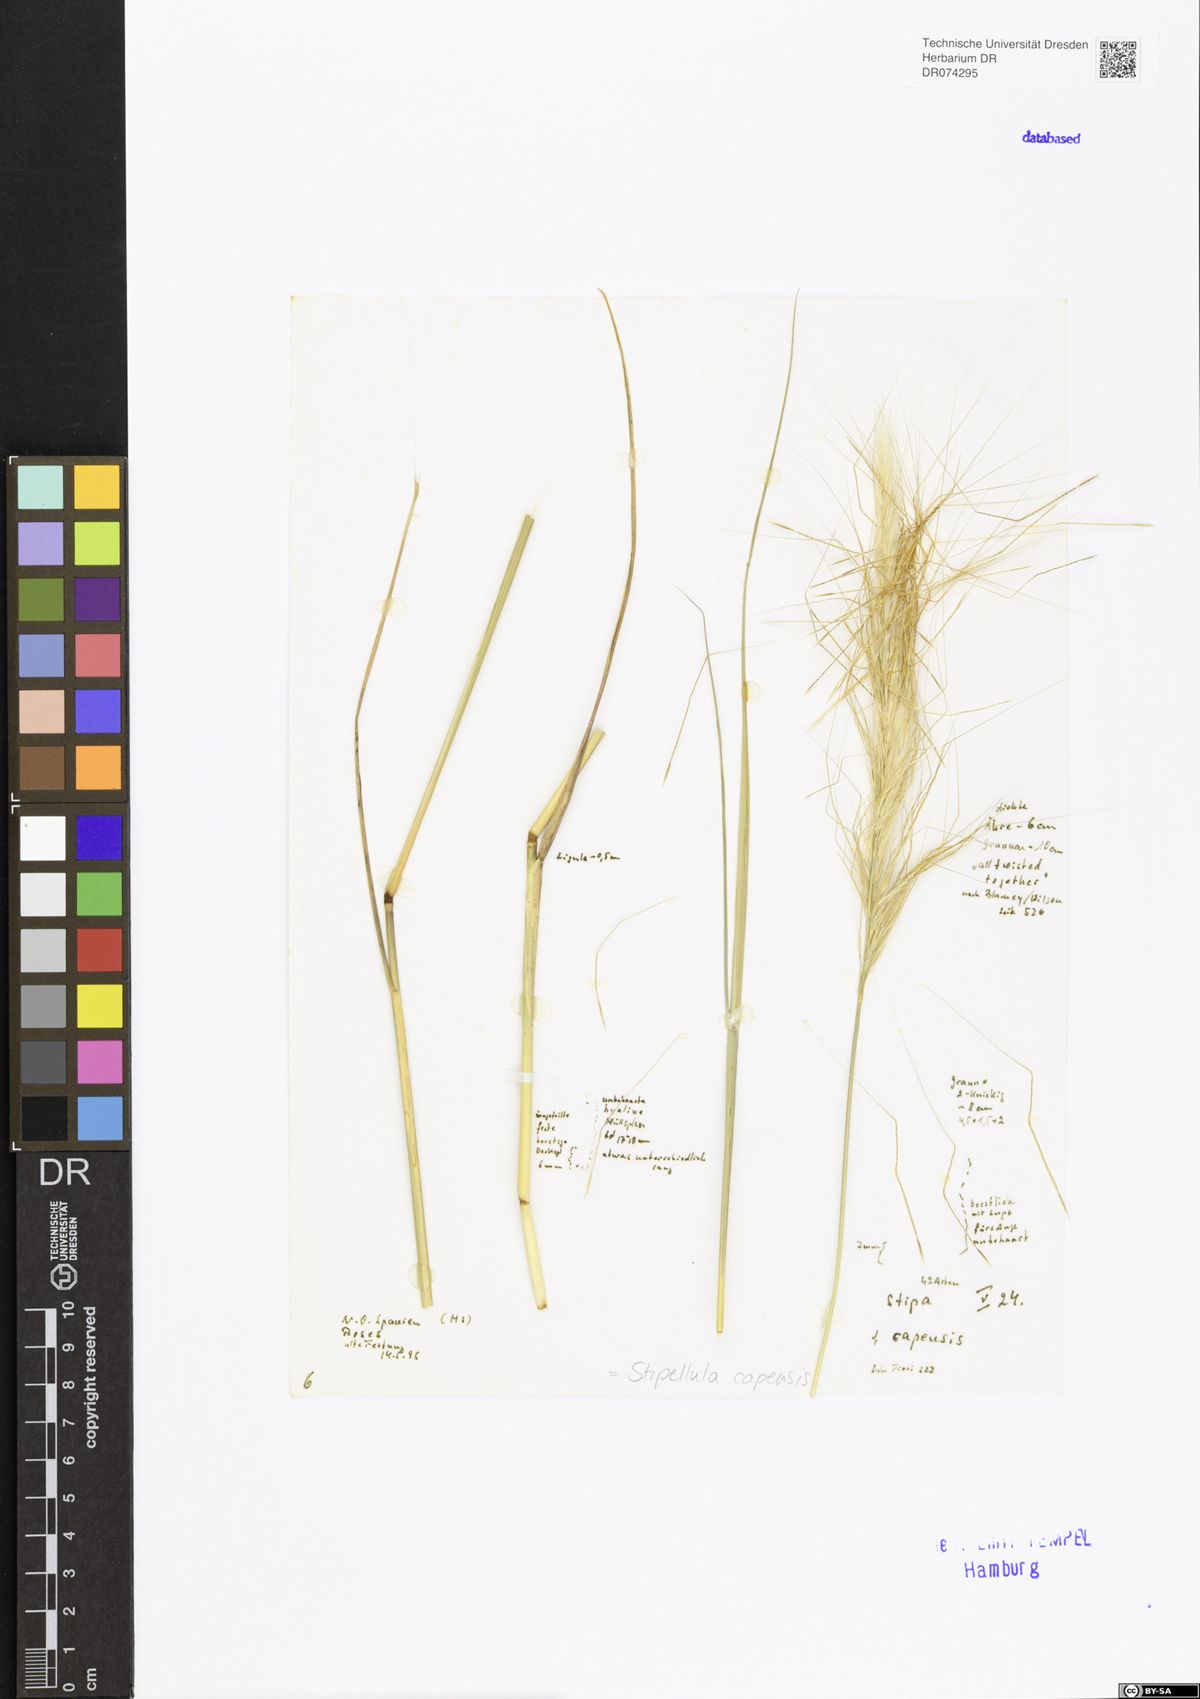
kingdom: Plantae
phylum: Tracheophyta
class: Liliopsida
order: Poales
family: Poaceae
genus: Stipellula
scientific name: Stipellula capensis
